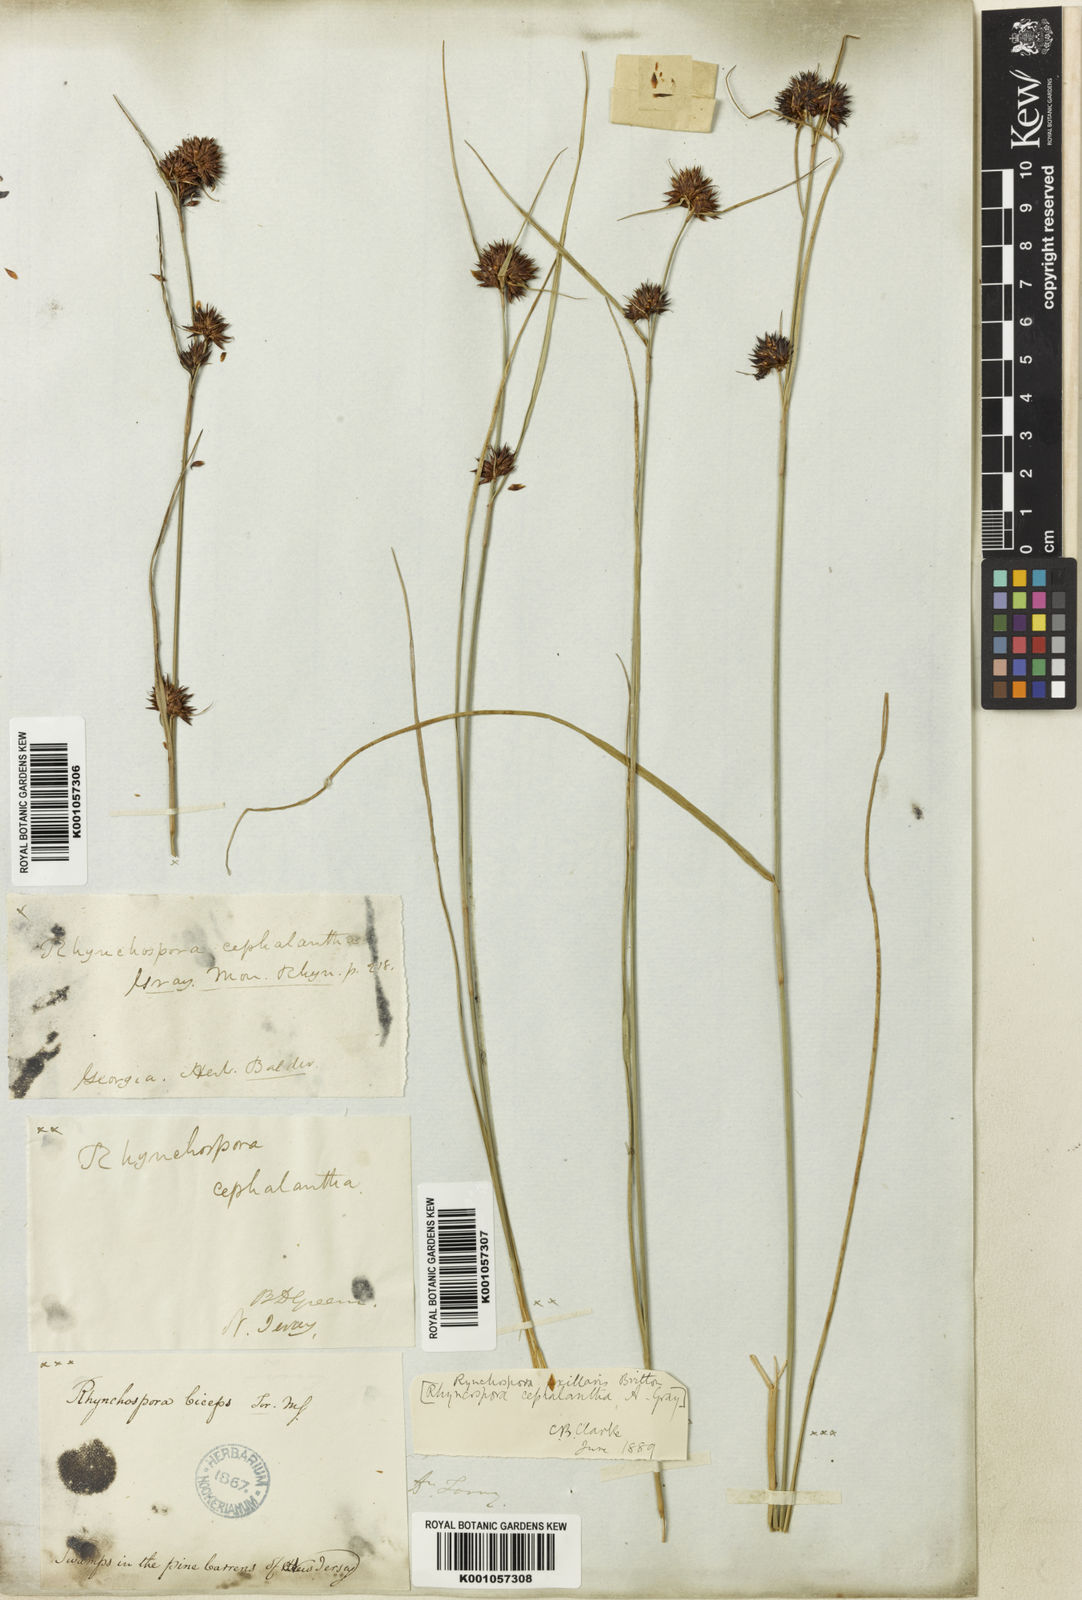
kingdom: Plantae
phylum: Tracheophyta
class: Liliopsida
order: Poales
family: Cyperaceae
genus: Rhynchospora
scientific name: Rhynchospora glomerata
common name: Cluster beak sedge
